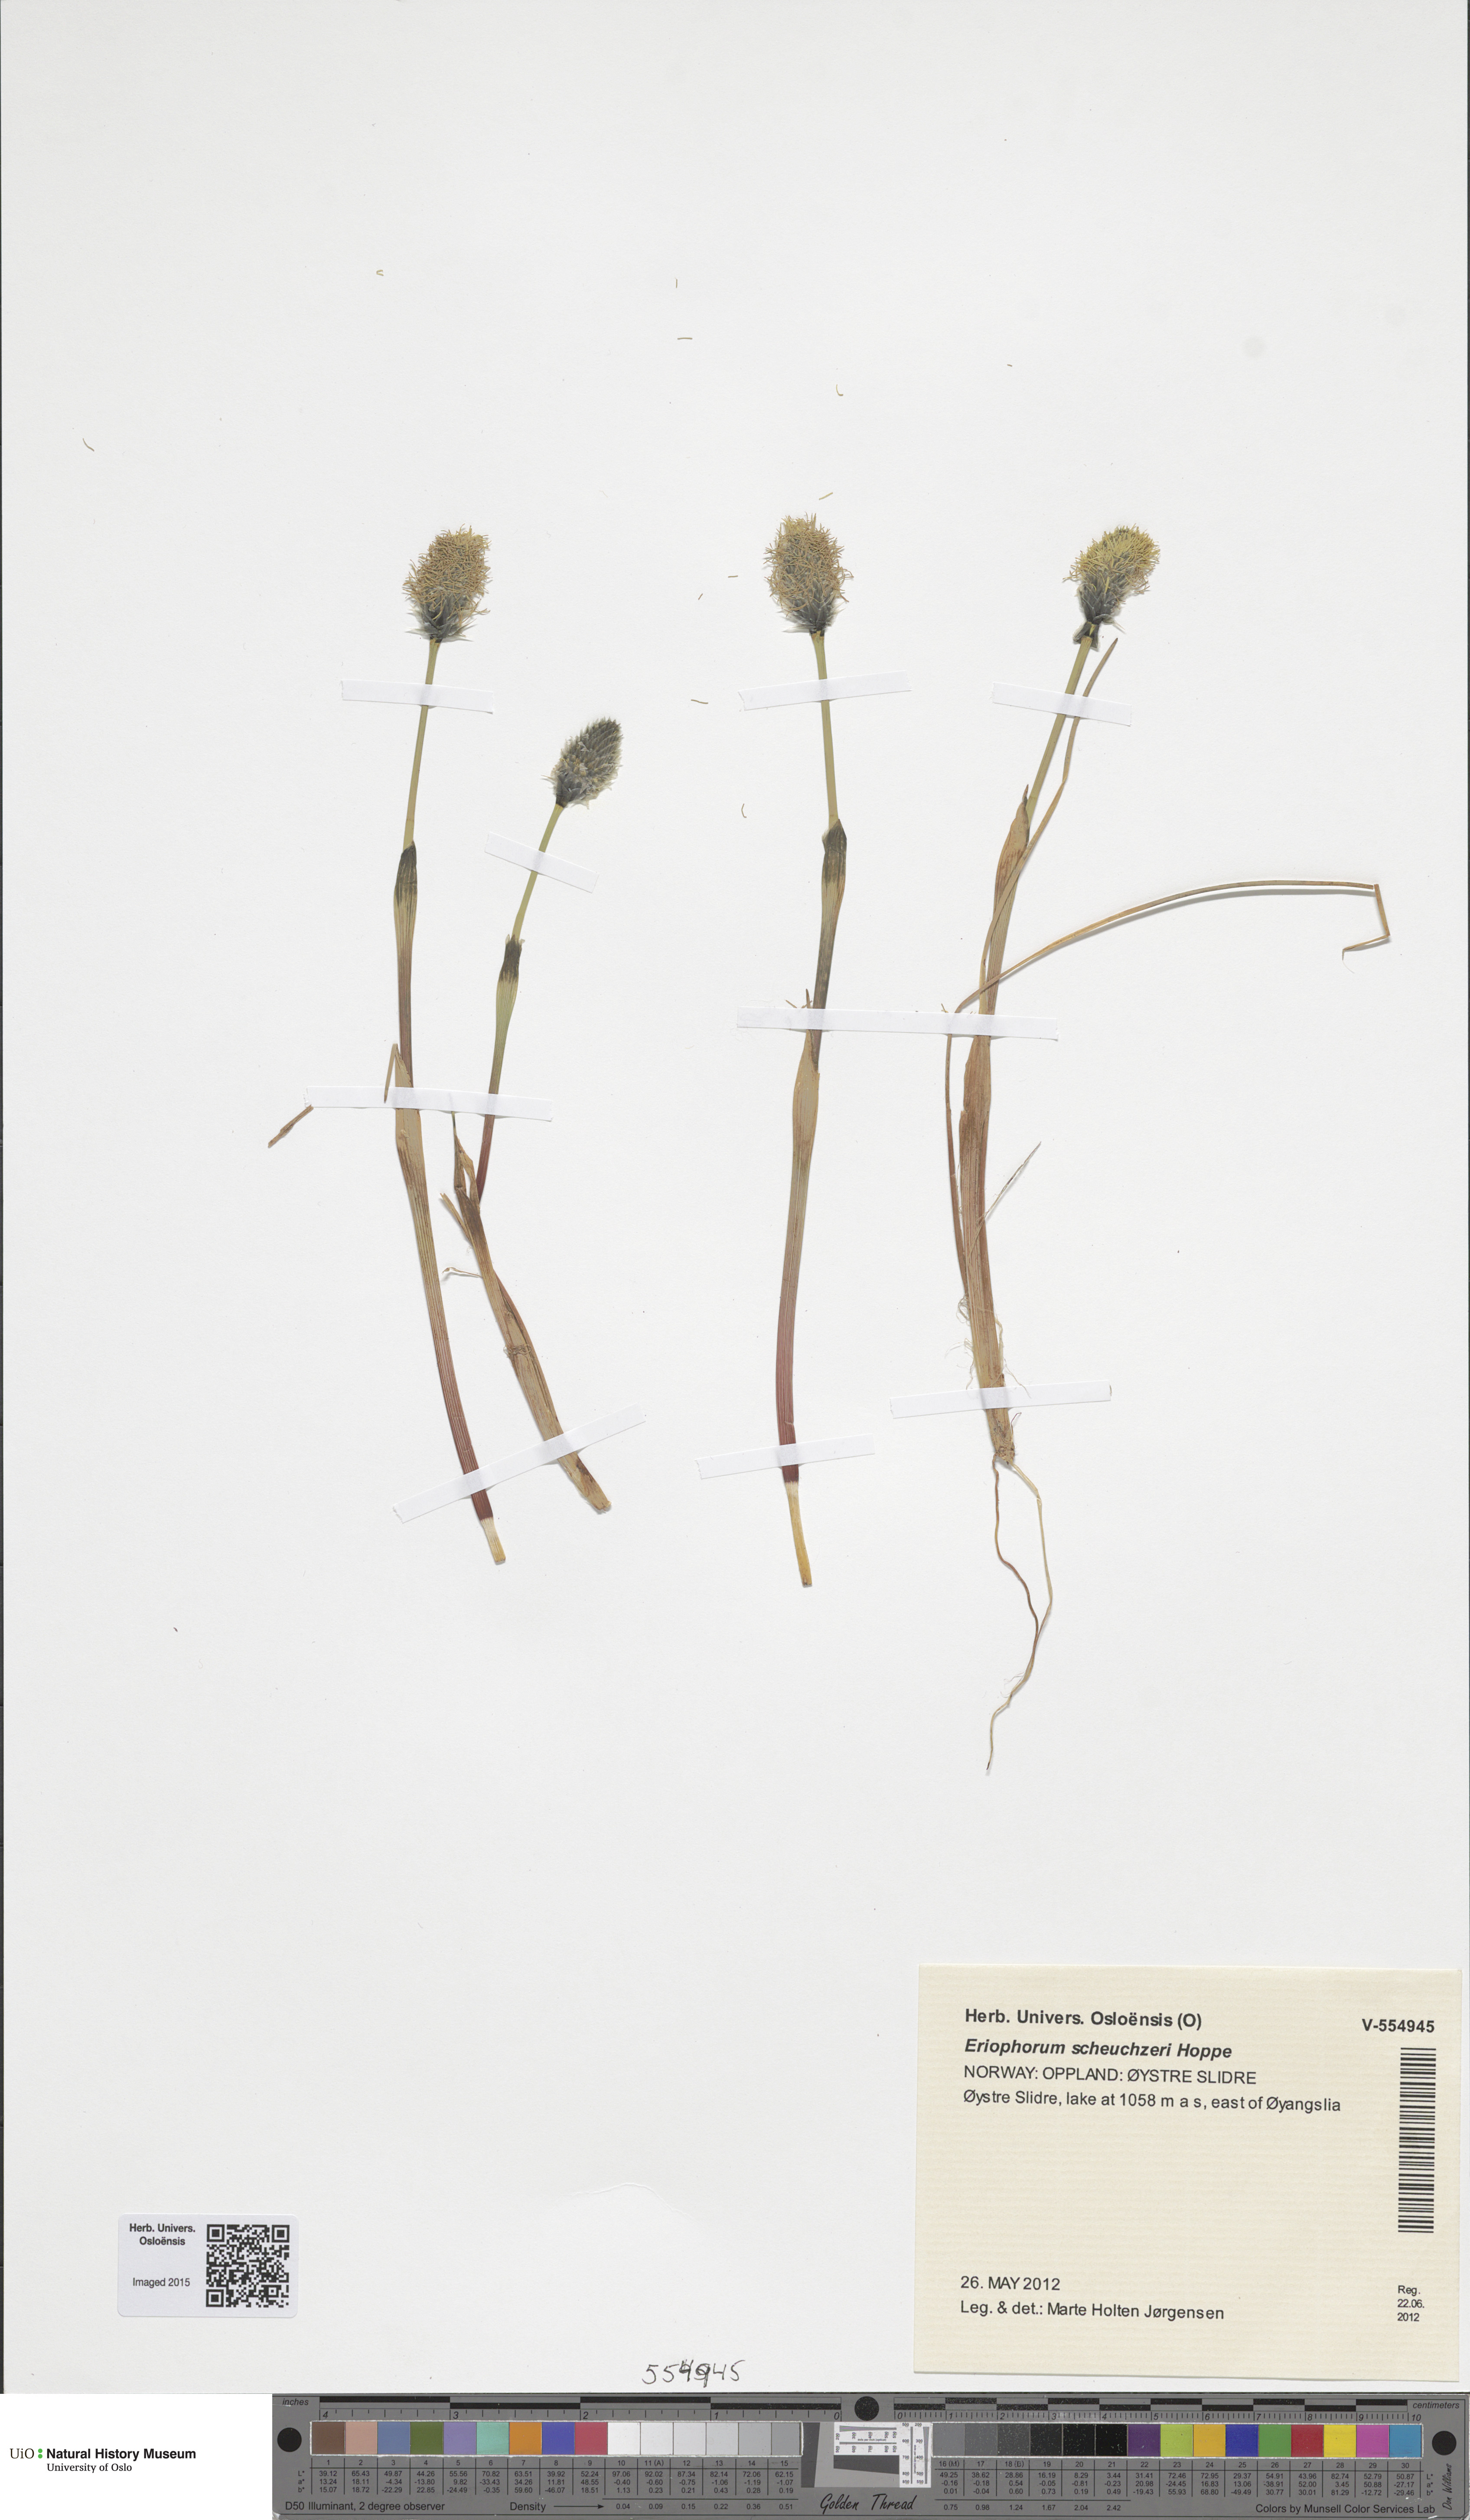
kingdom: Plantae
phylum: Tracheophyta
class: Liliopsida
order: Poales
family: Cyperaceae
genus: Eriophorum
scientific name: Eriophorum vaginatum
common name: Hare's-tail cottongrass
